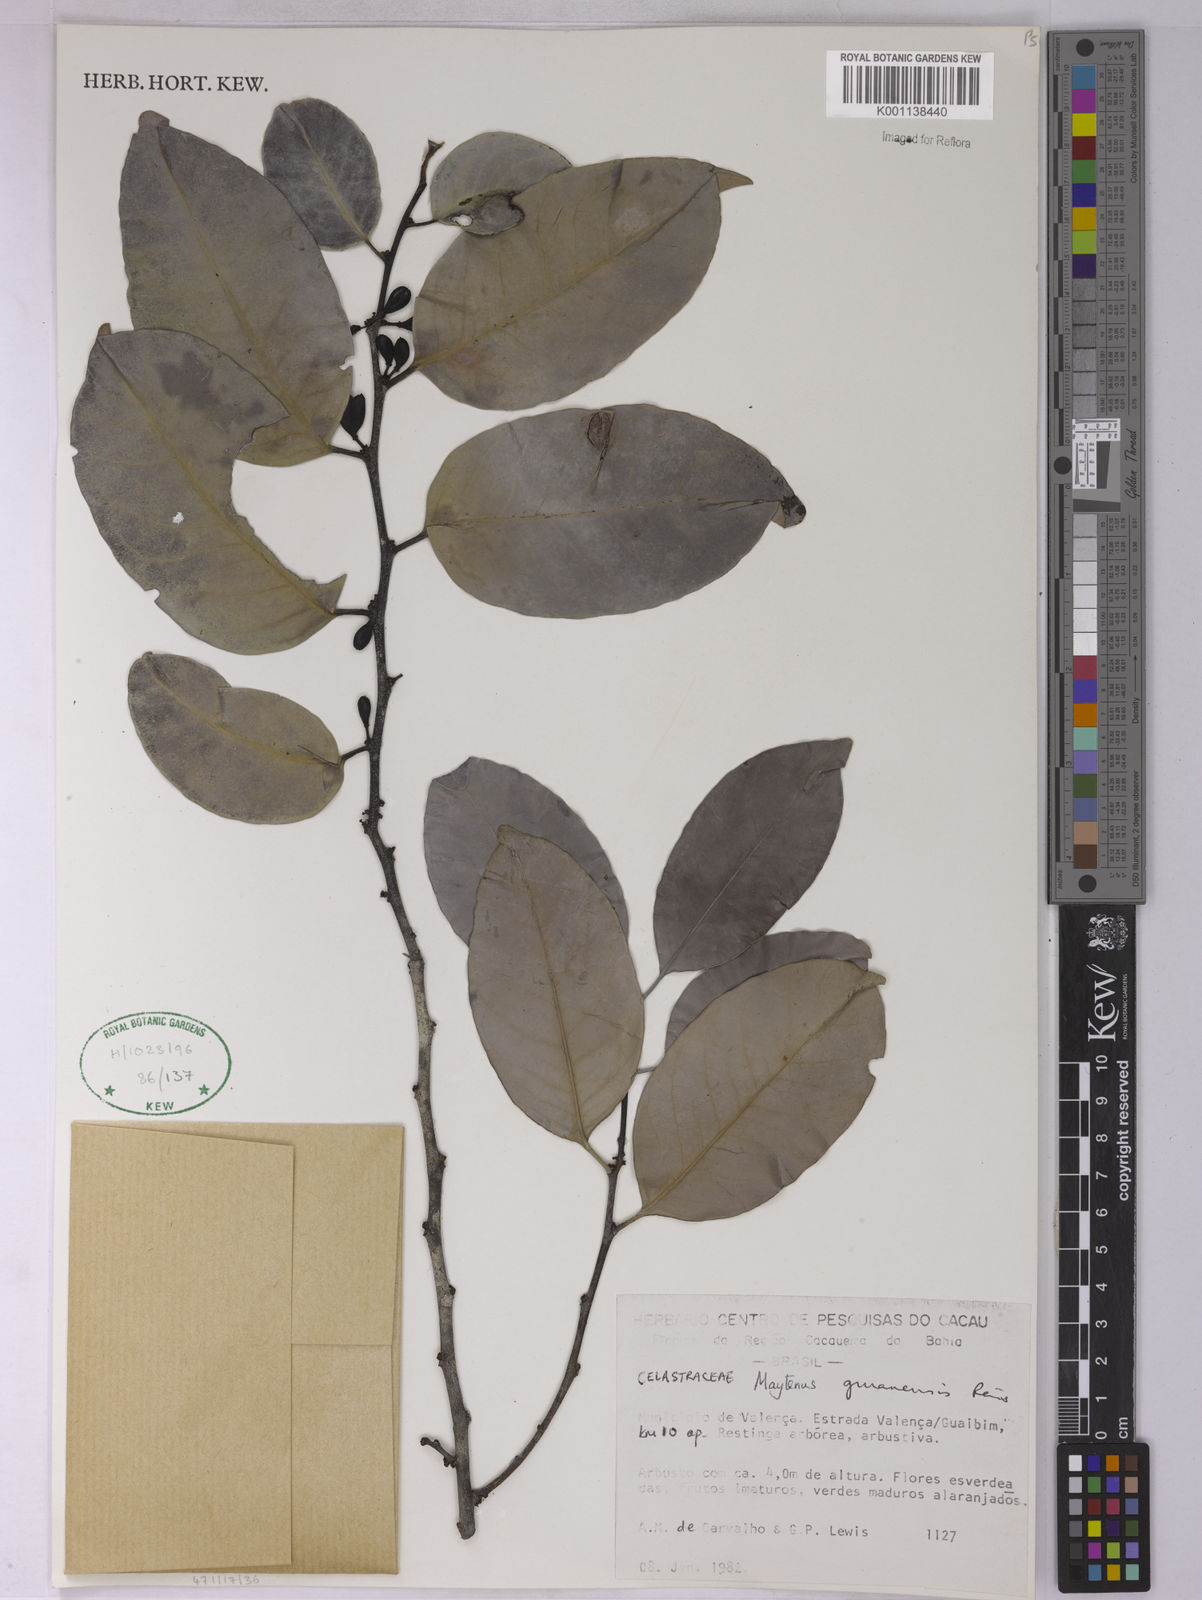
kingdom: Plantae
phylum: Tracheophyta
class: Magnoliopsida
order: Celastrales
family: Celastraceae
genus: Monteverdia
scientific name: Monteverdia guyanensis
